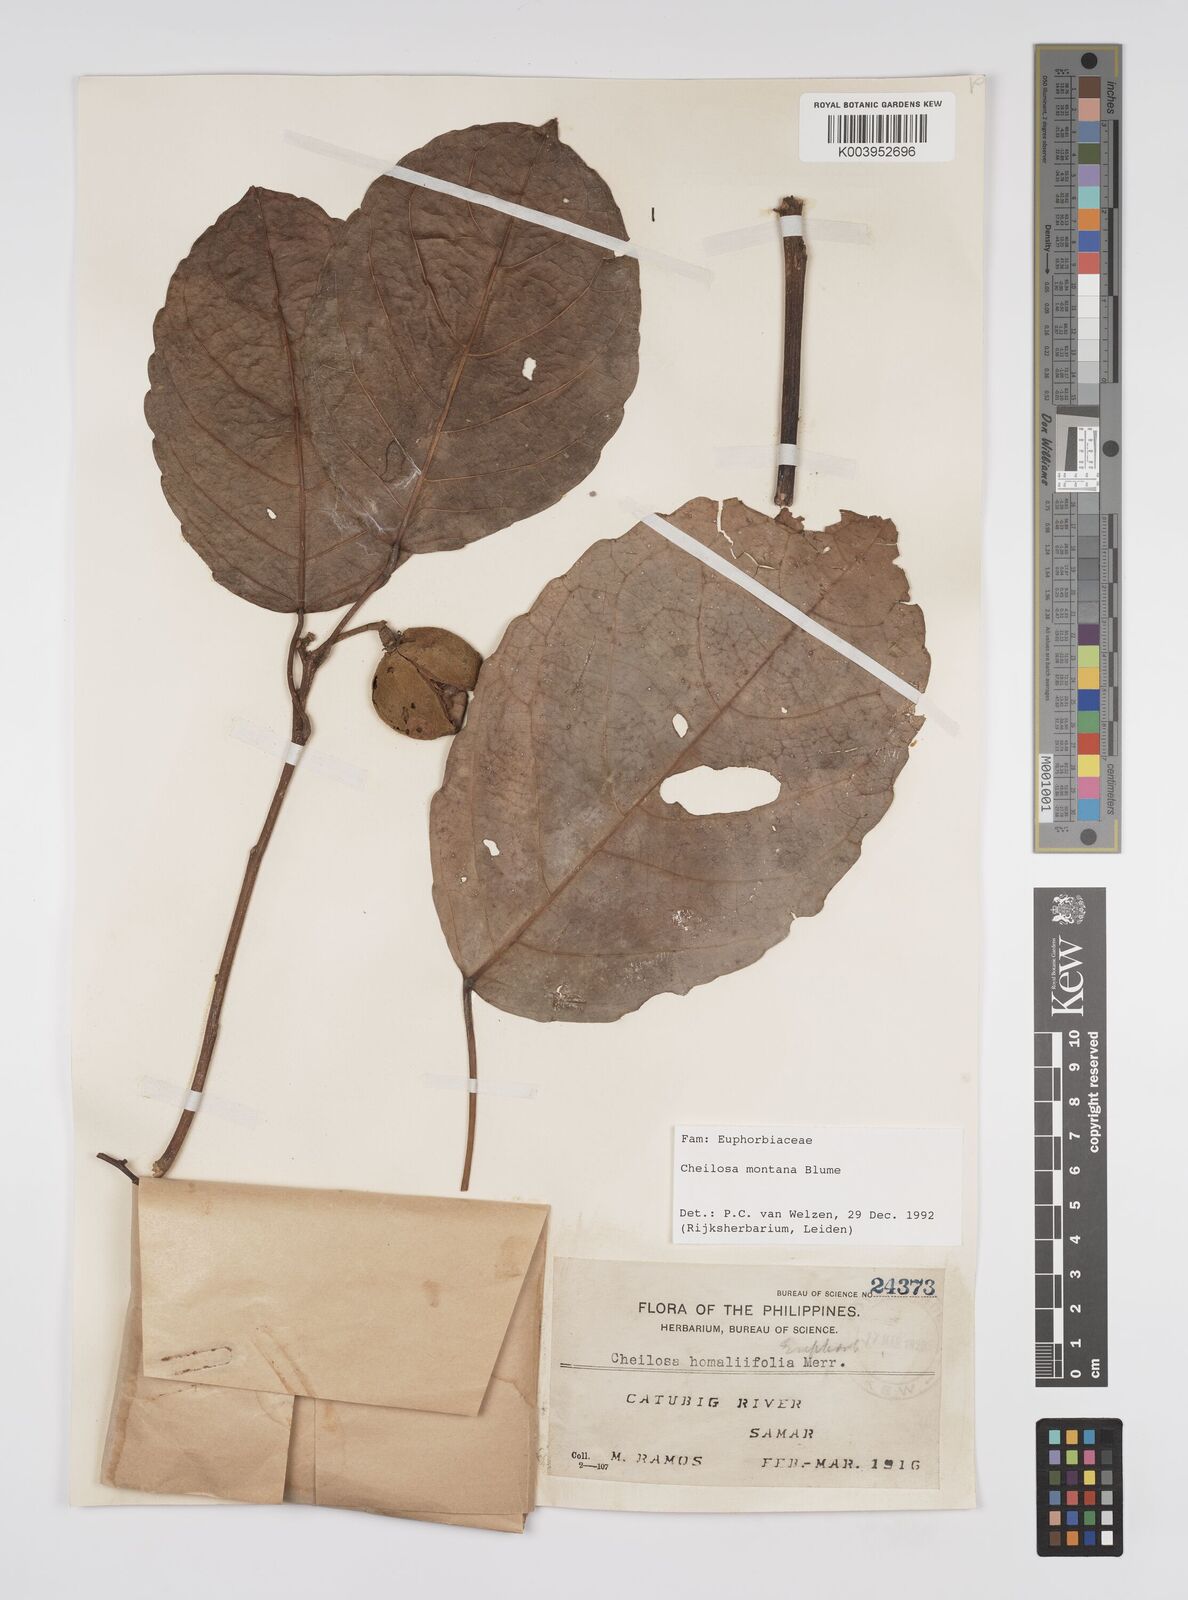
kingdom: Plantae
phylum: Tracheophyta
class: Magnoliopsida
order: Malpighiales
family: Euphorbiaceae
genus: Cheilosa
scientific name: Cheilosa montana
